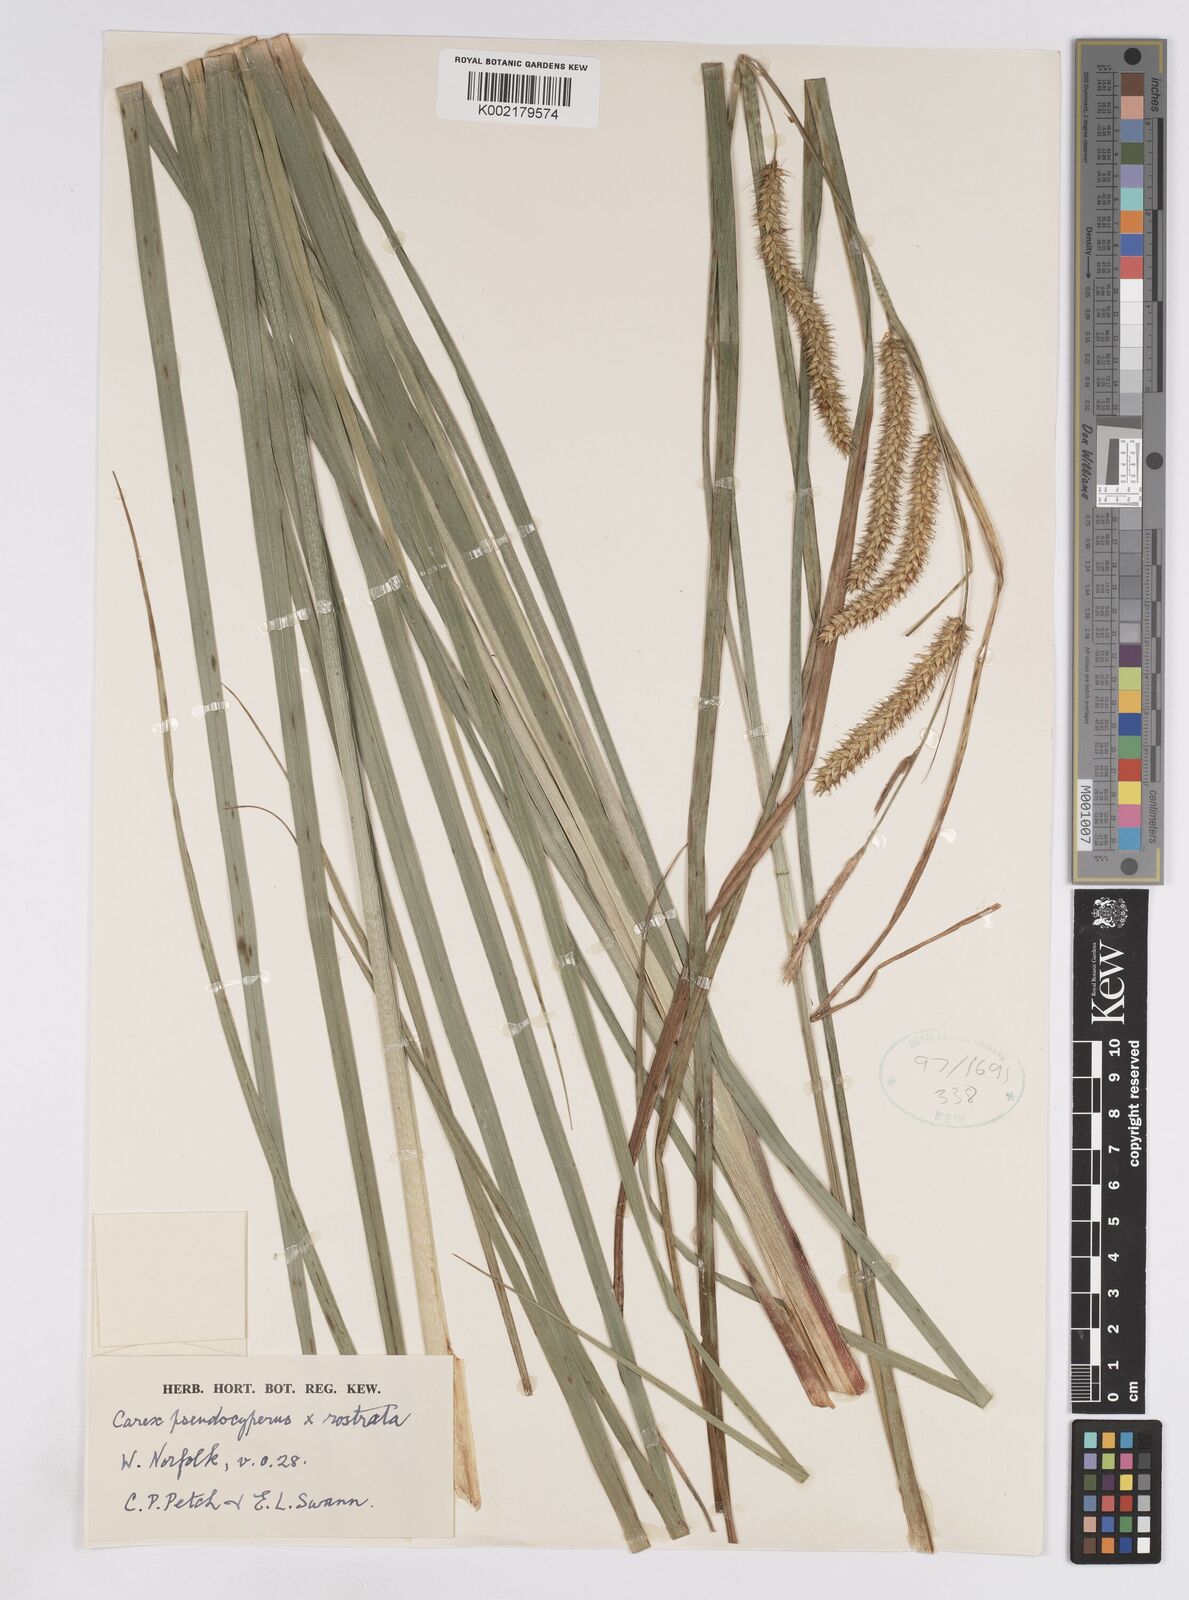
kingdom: Plantae
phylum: Tracheophyta
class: Liliopsida
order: Poales
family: Cyperaceae
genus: Carex
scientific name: Carex pseudocyperus
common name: Cyperus sedge
